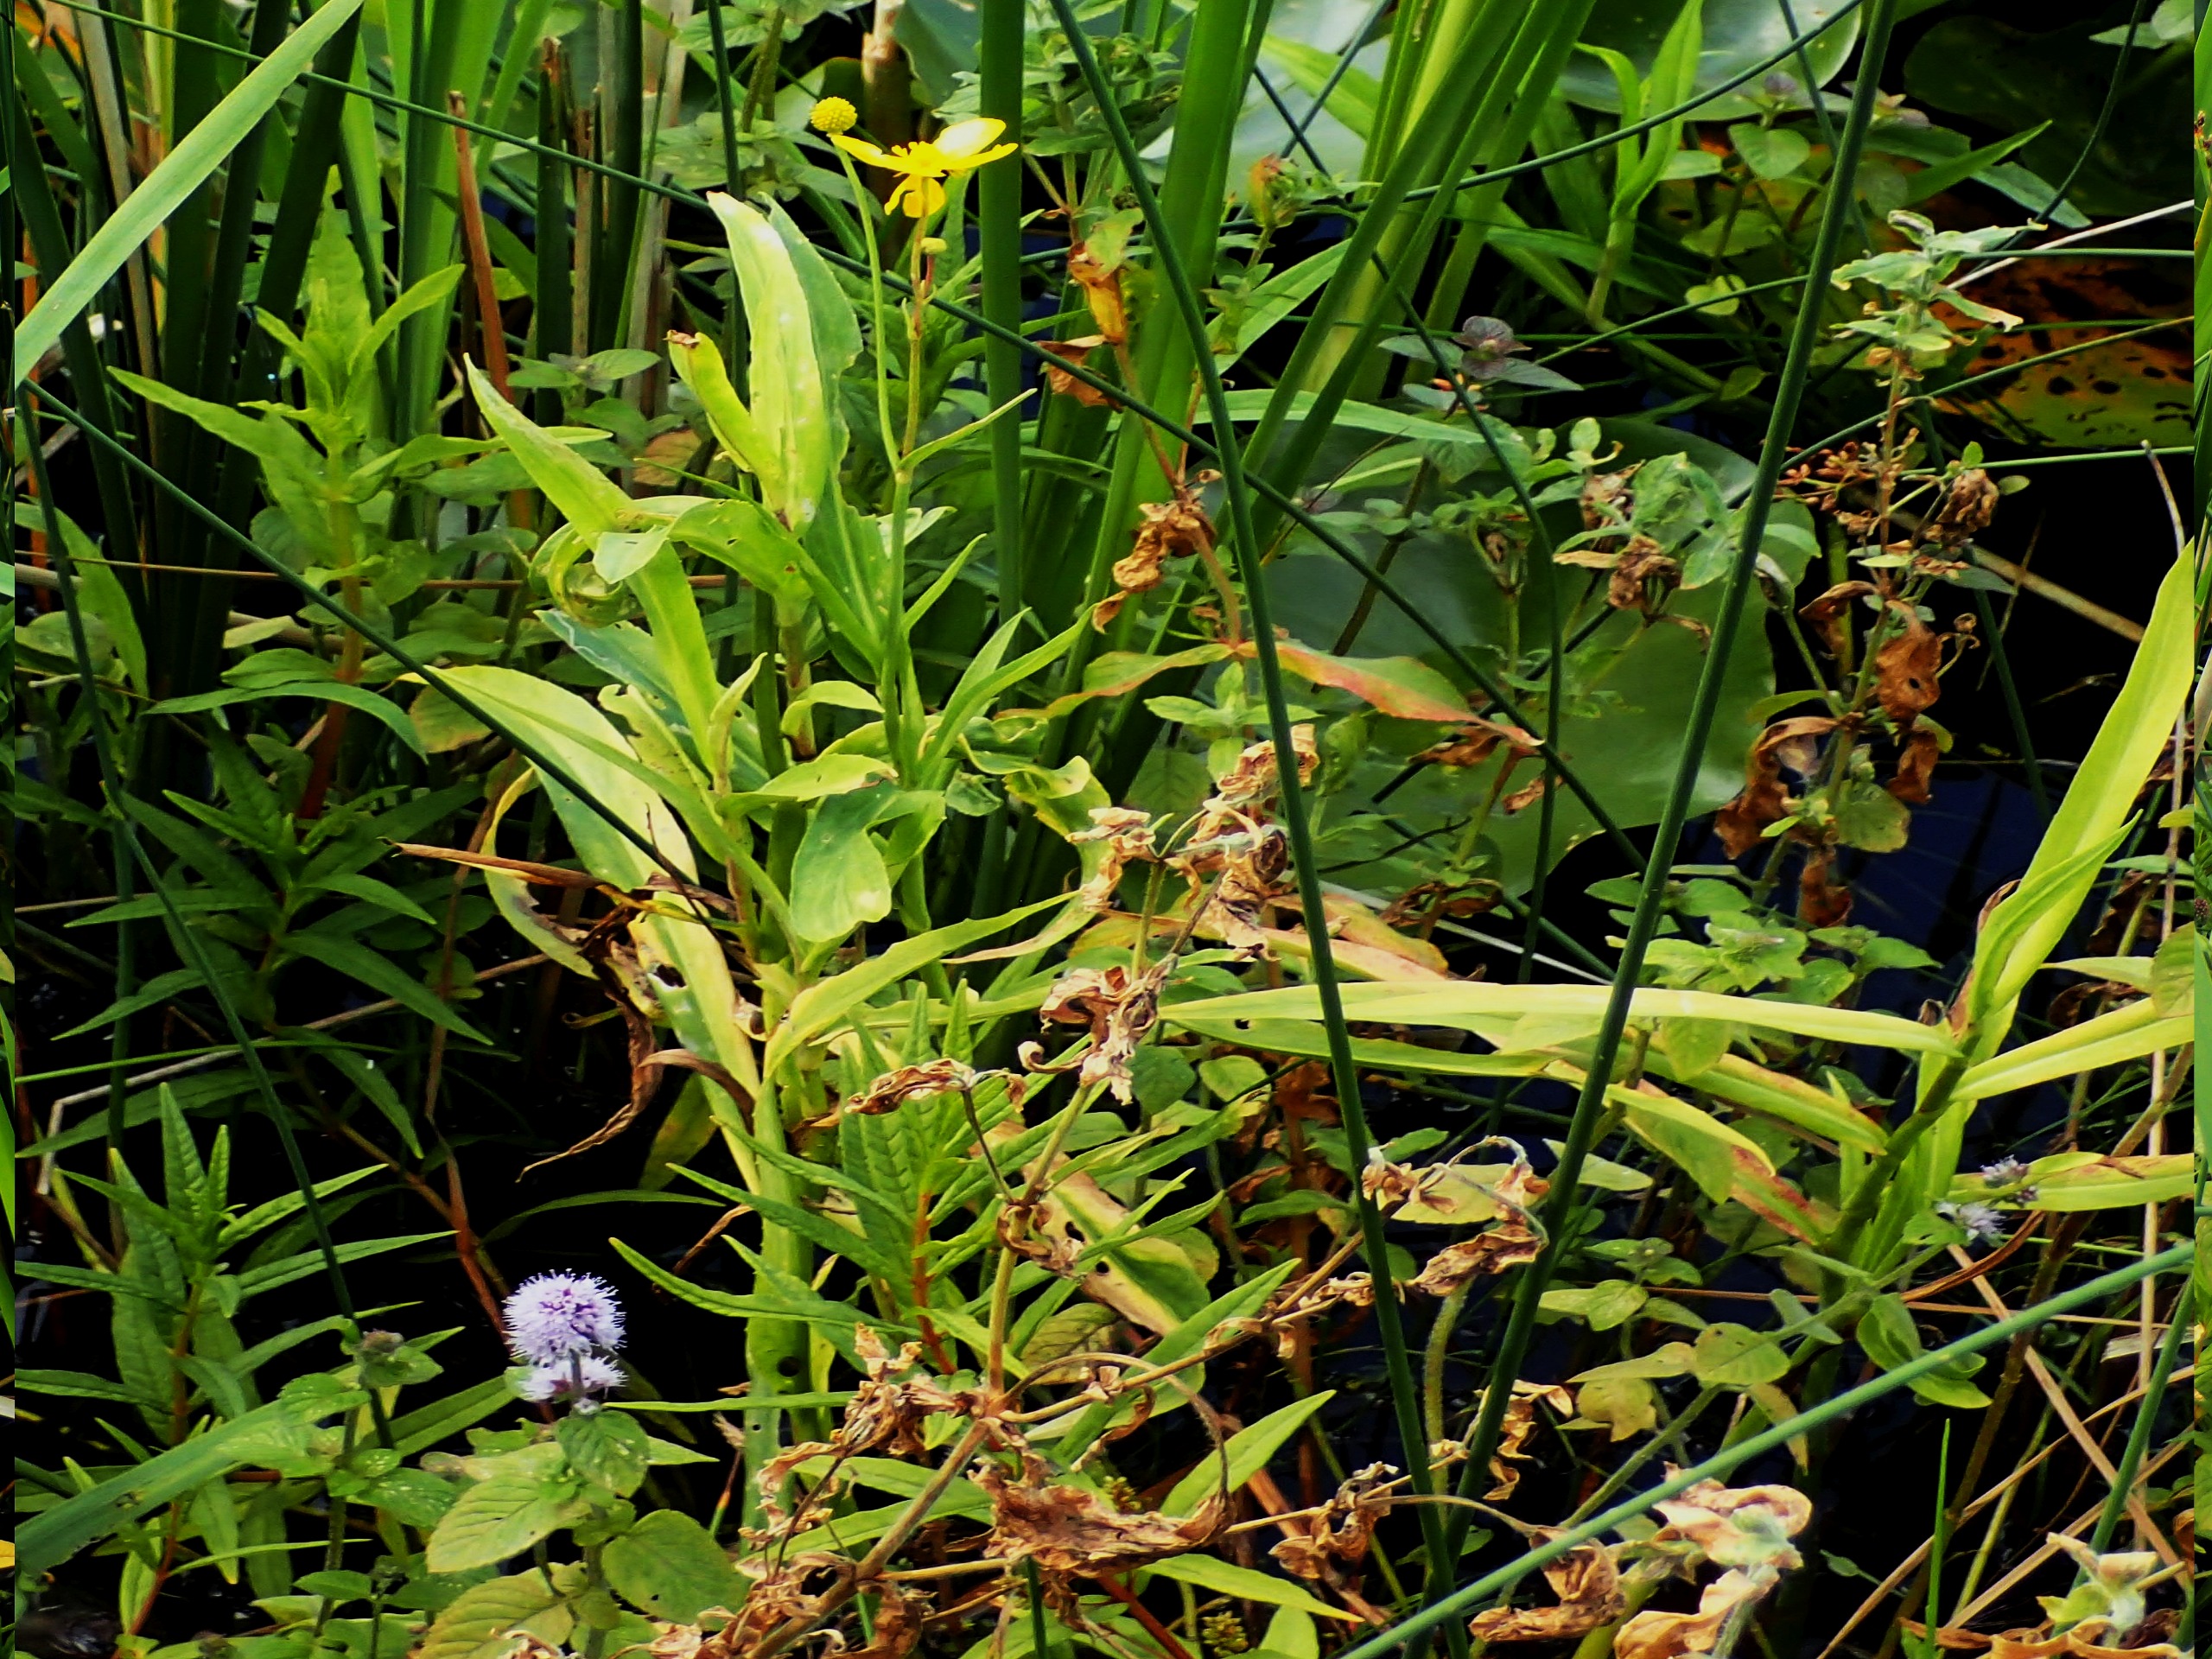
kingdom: Plantae
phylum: Tracheophyta
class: Magnoliopsida
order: Ranunculales
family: Ranunculaceae
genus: Ranunculus
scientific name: Ranunculus lingua
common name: Langbladet ranunkel
